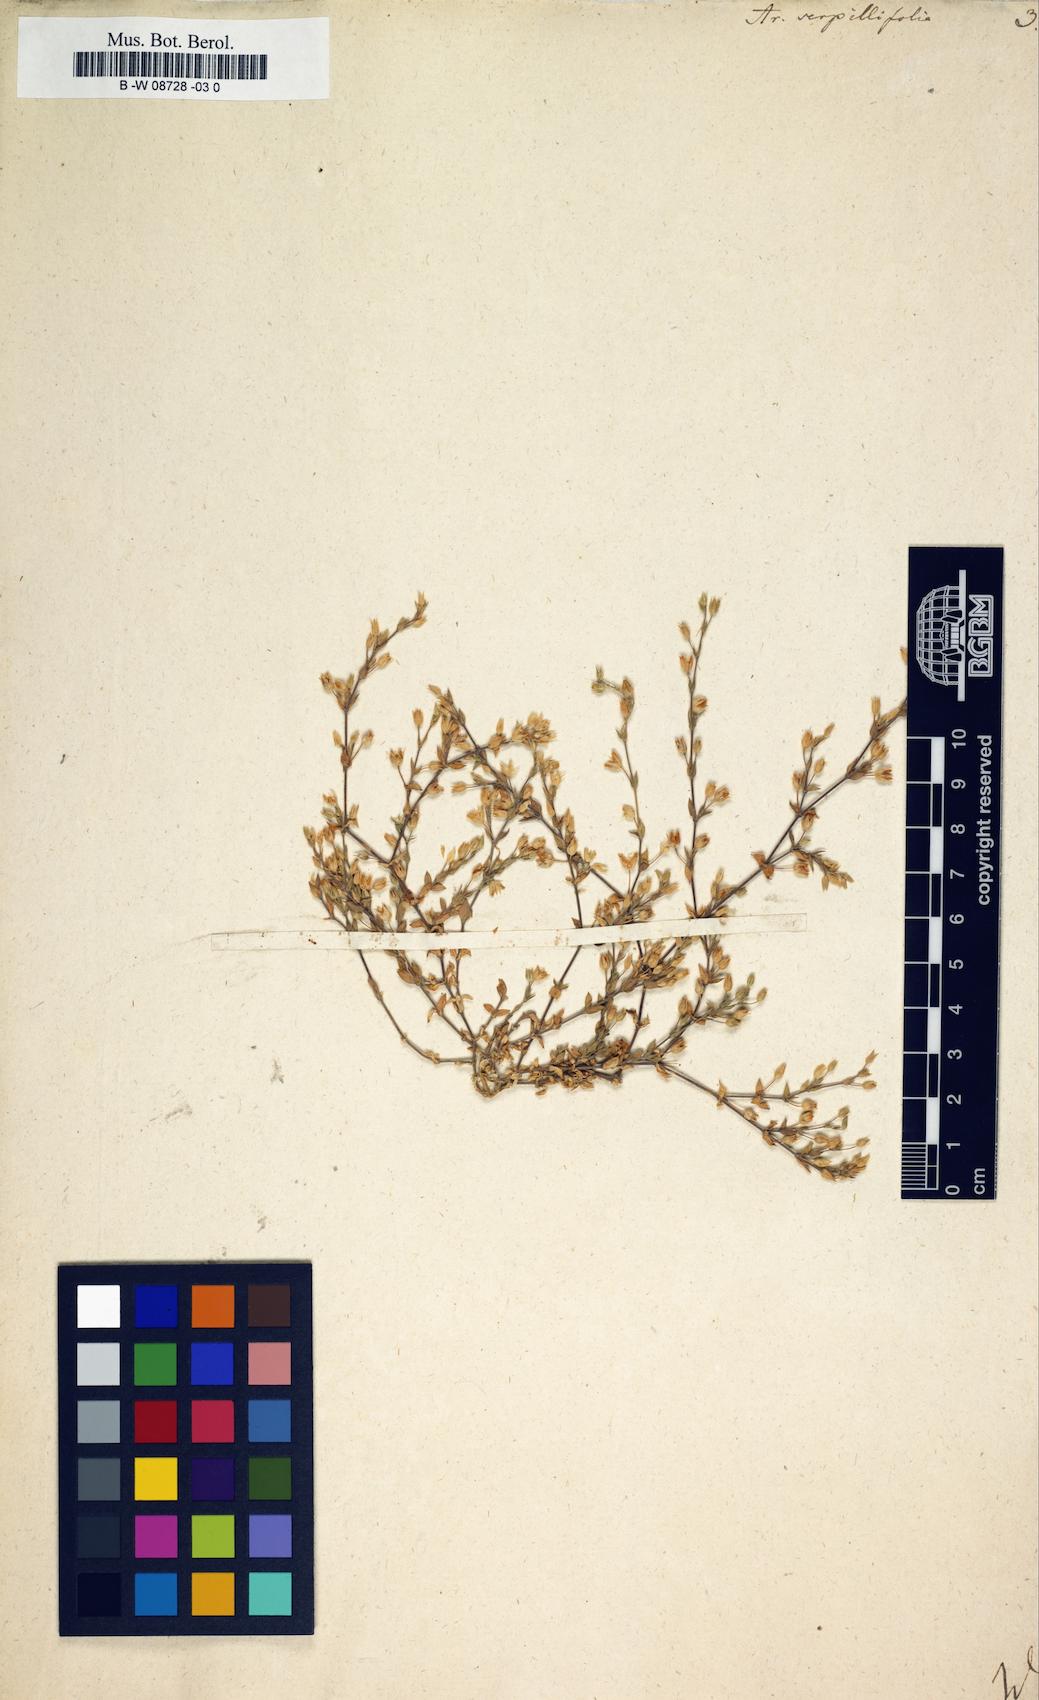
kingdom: Plantae
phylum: Tracheophyta
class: Magnoliopsida
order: Caryophyllales
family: Caryophyllaceae
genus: Arenaria
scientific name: Arenaria serpyllifolia
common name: Thyme-leaved sandwort
